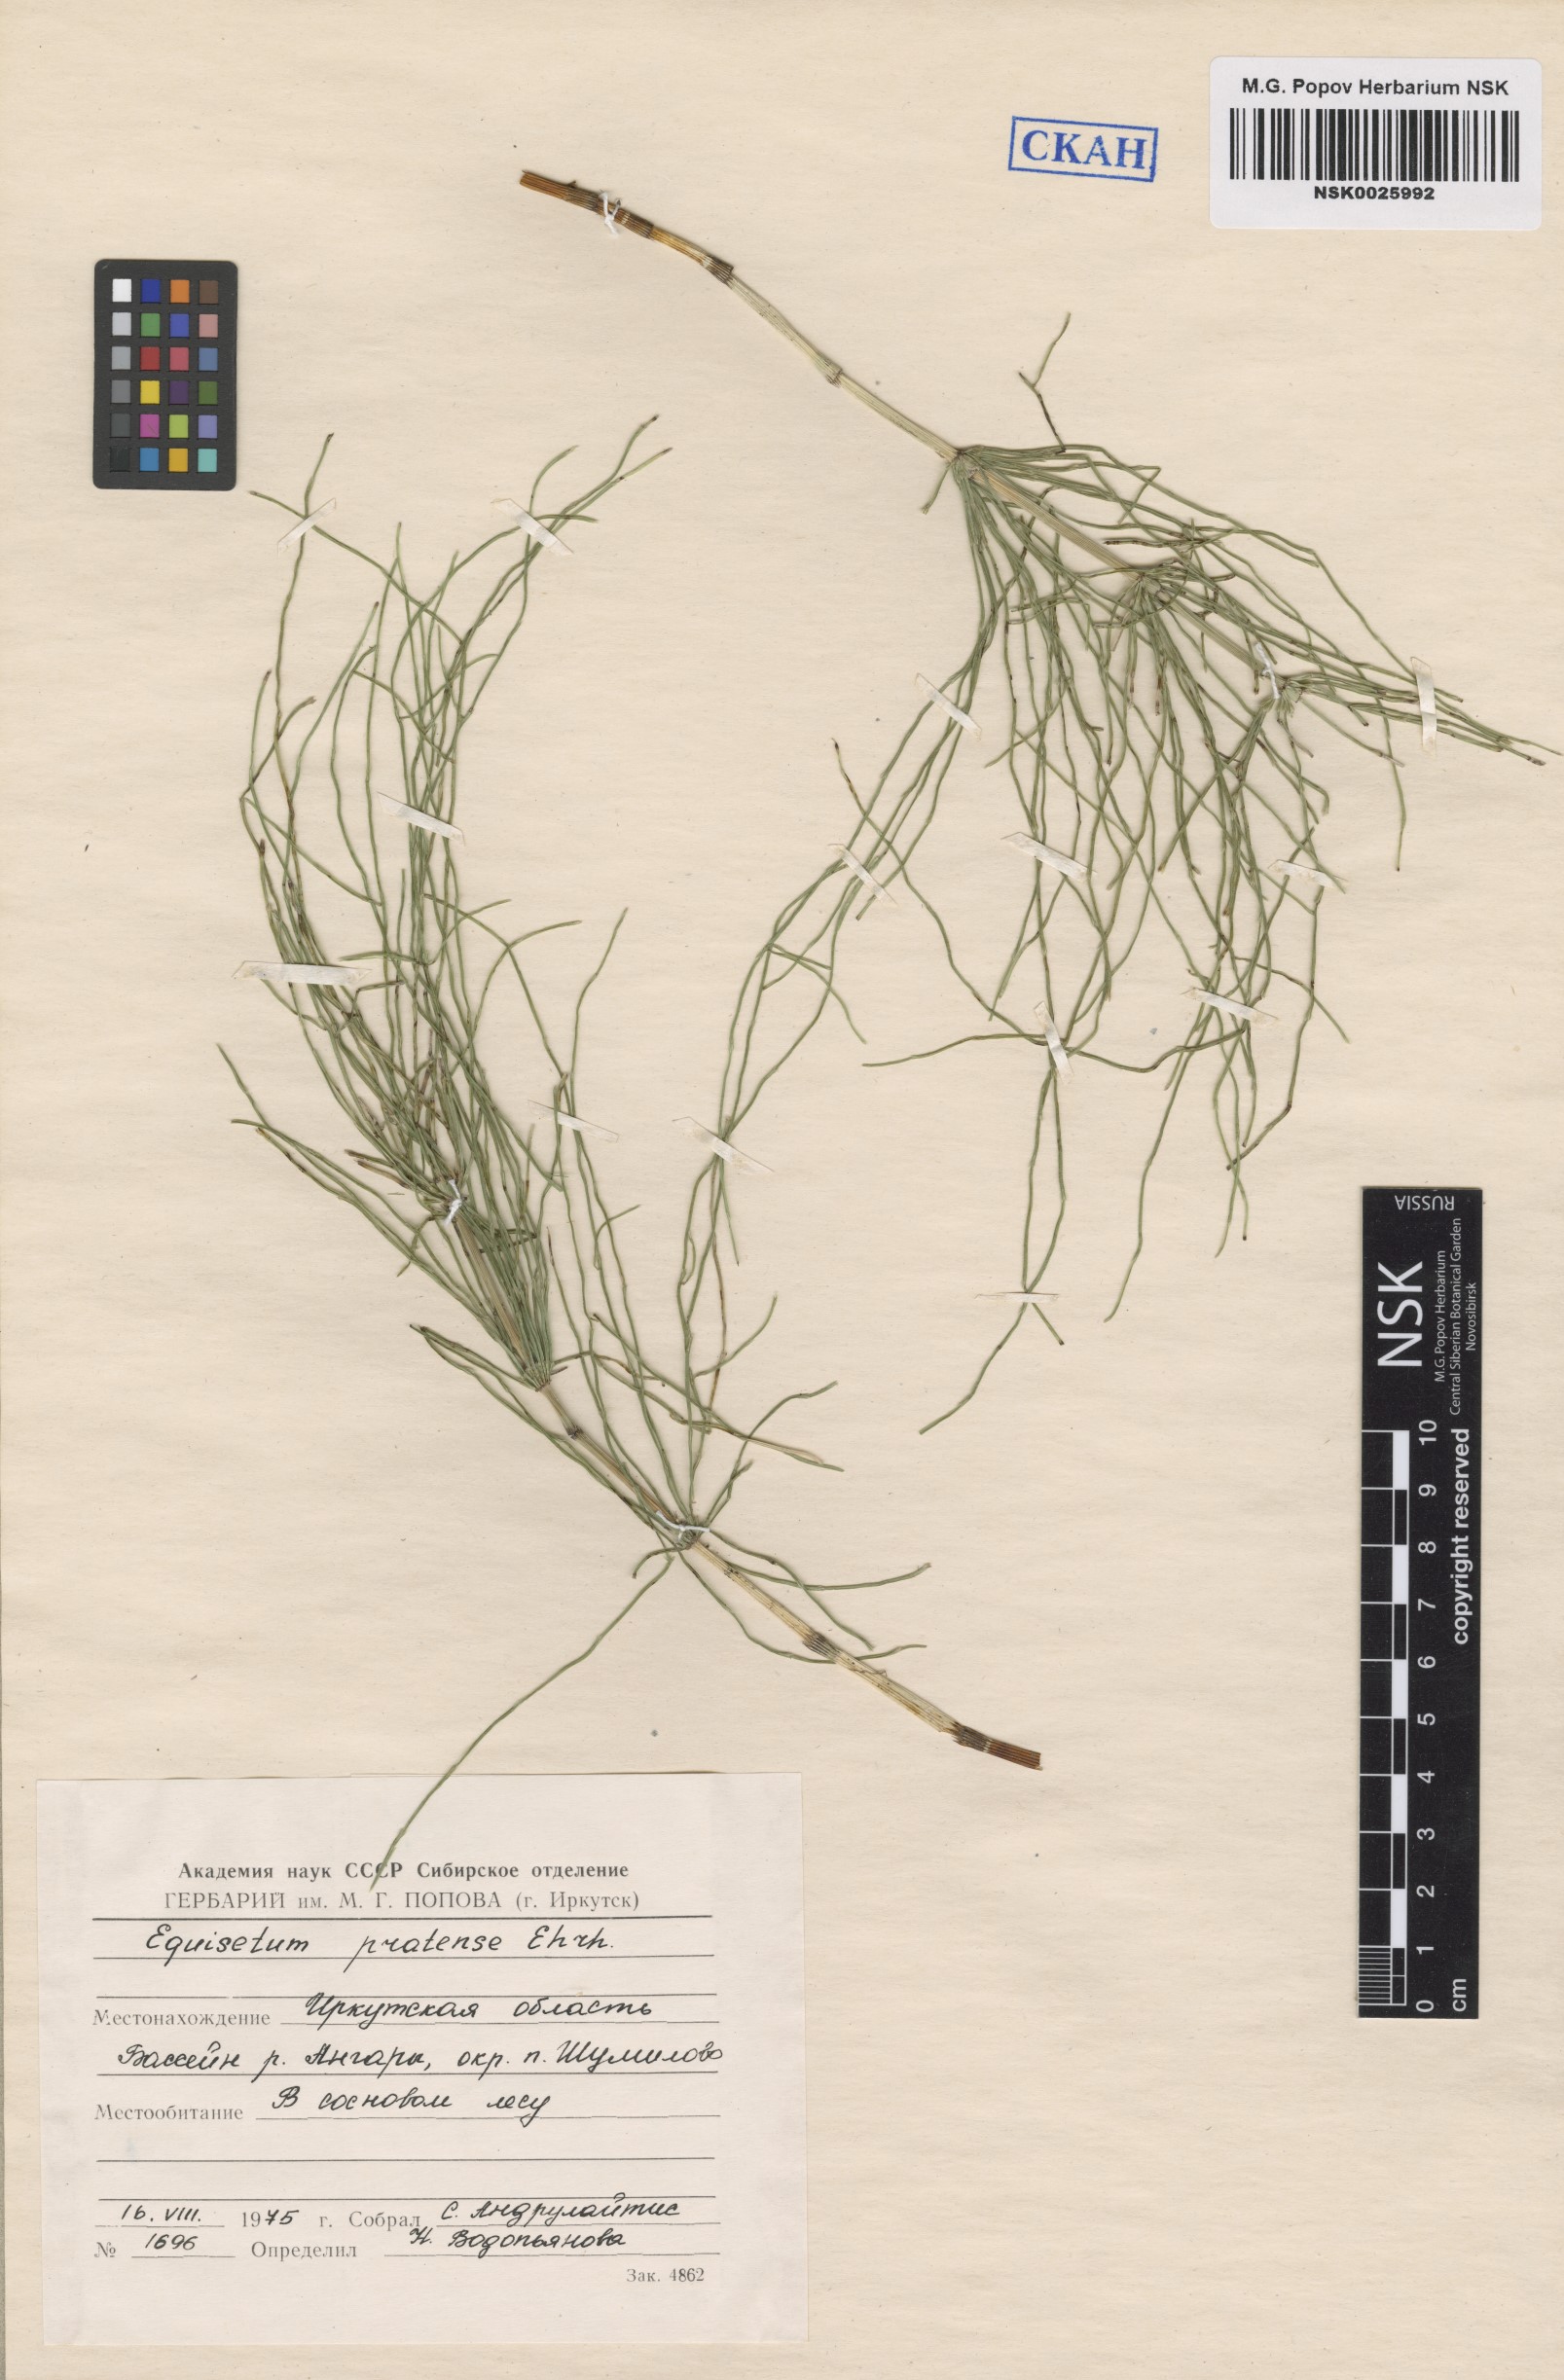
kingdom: Plantae
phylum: Tracheophyta
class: Polypodiopsida
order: Equisetales
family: Equisetaceae
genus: Equisetum
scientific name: Equisetum pratense
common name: Meadow horsetail
